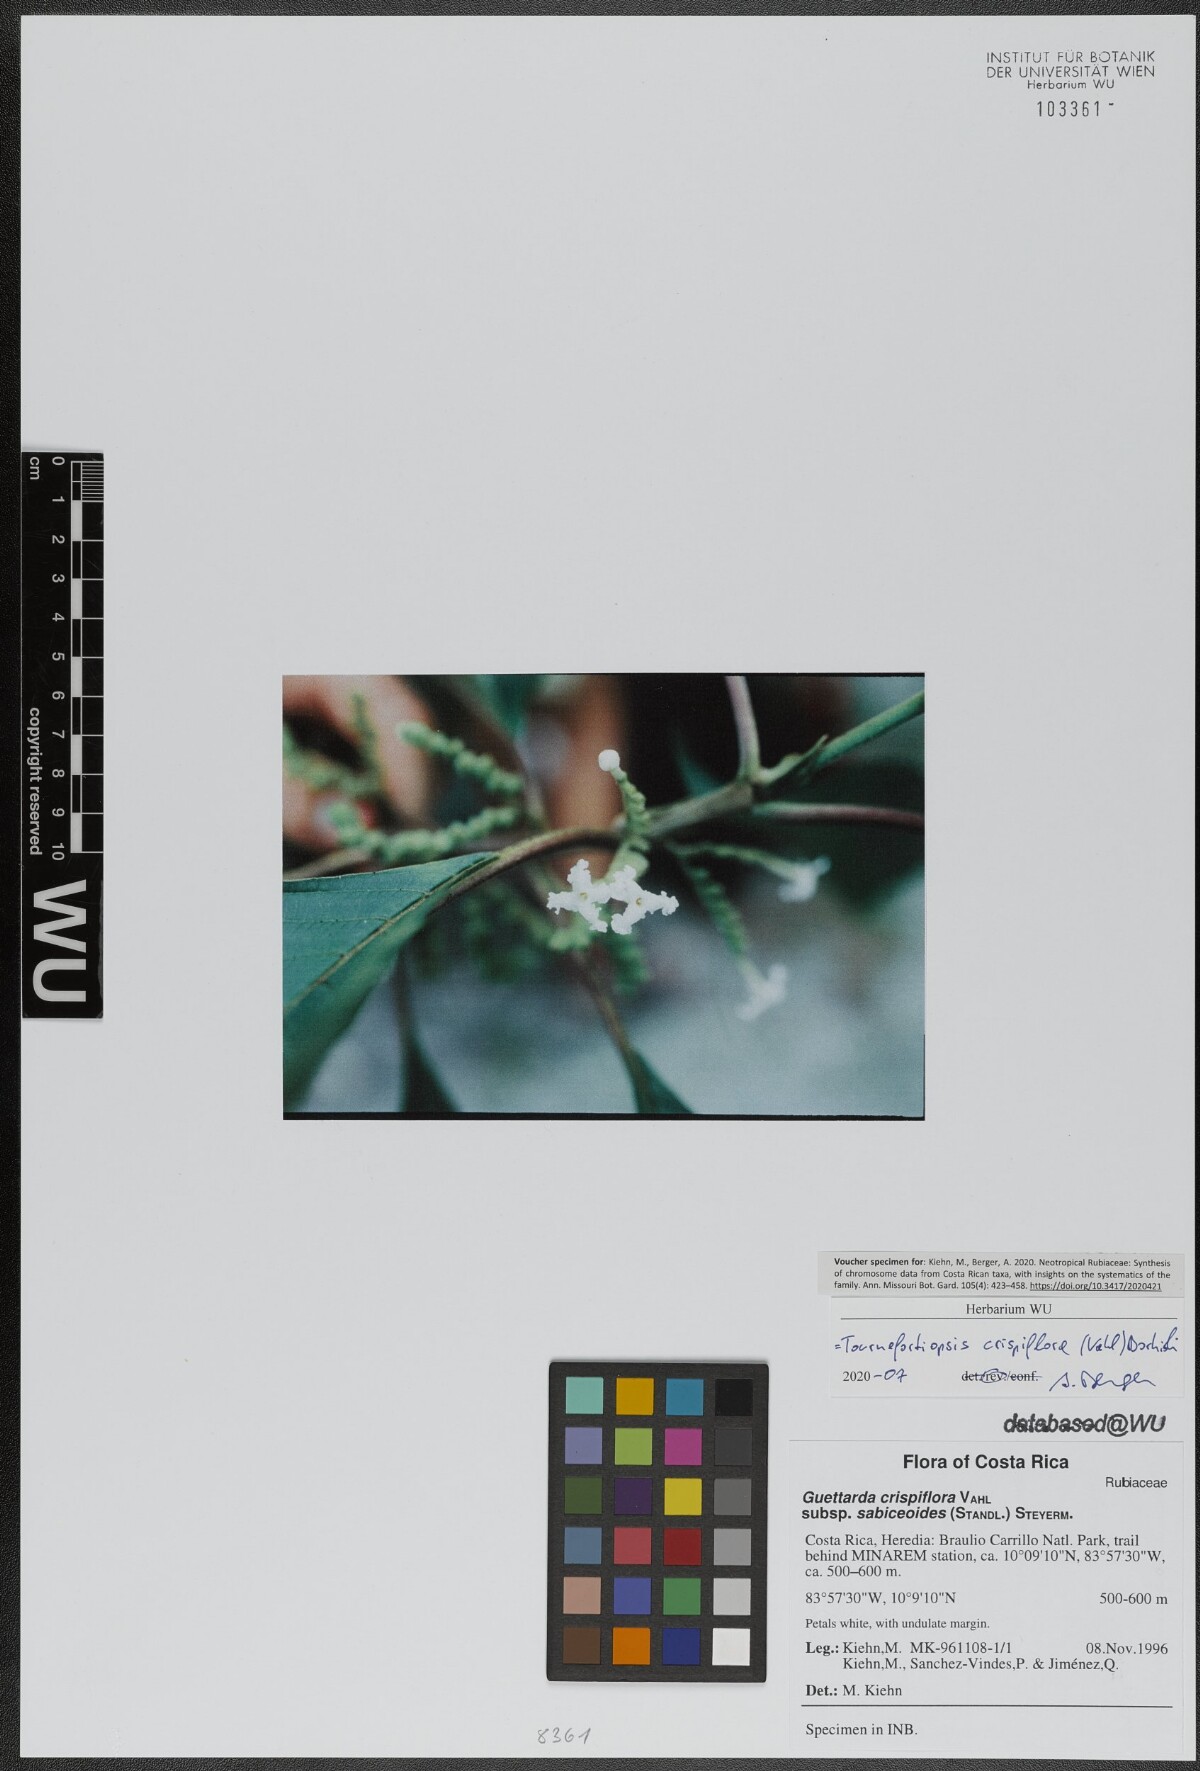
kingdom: Plantae
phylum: Tracheophyta
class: Magnoliopsida
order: Gentianales
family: Rubiaceae
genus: Tournefortiopsis
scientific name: Tournefortiopsis crispiflora
